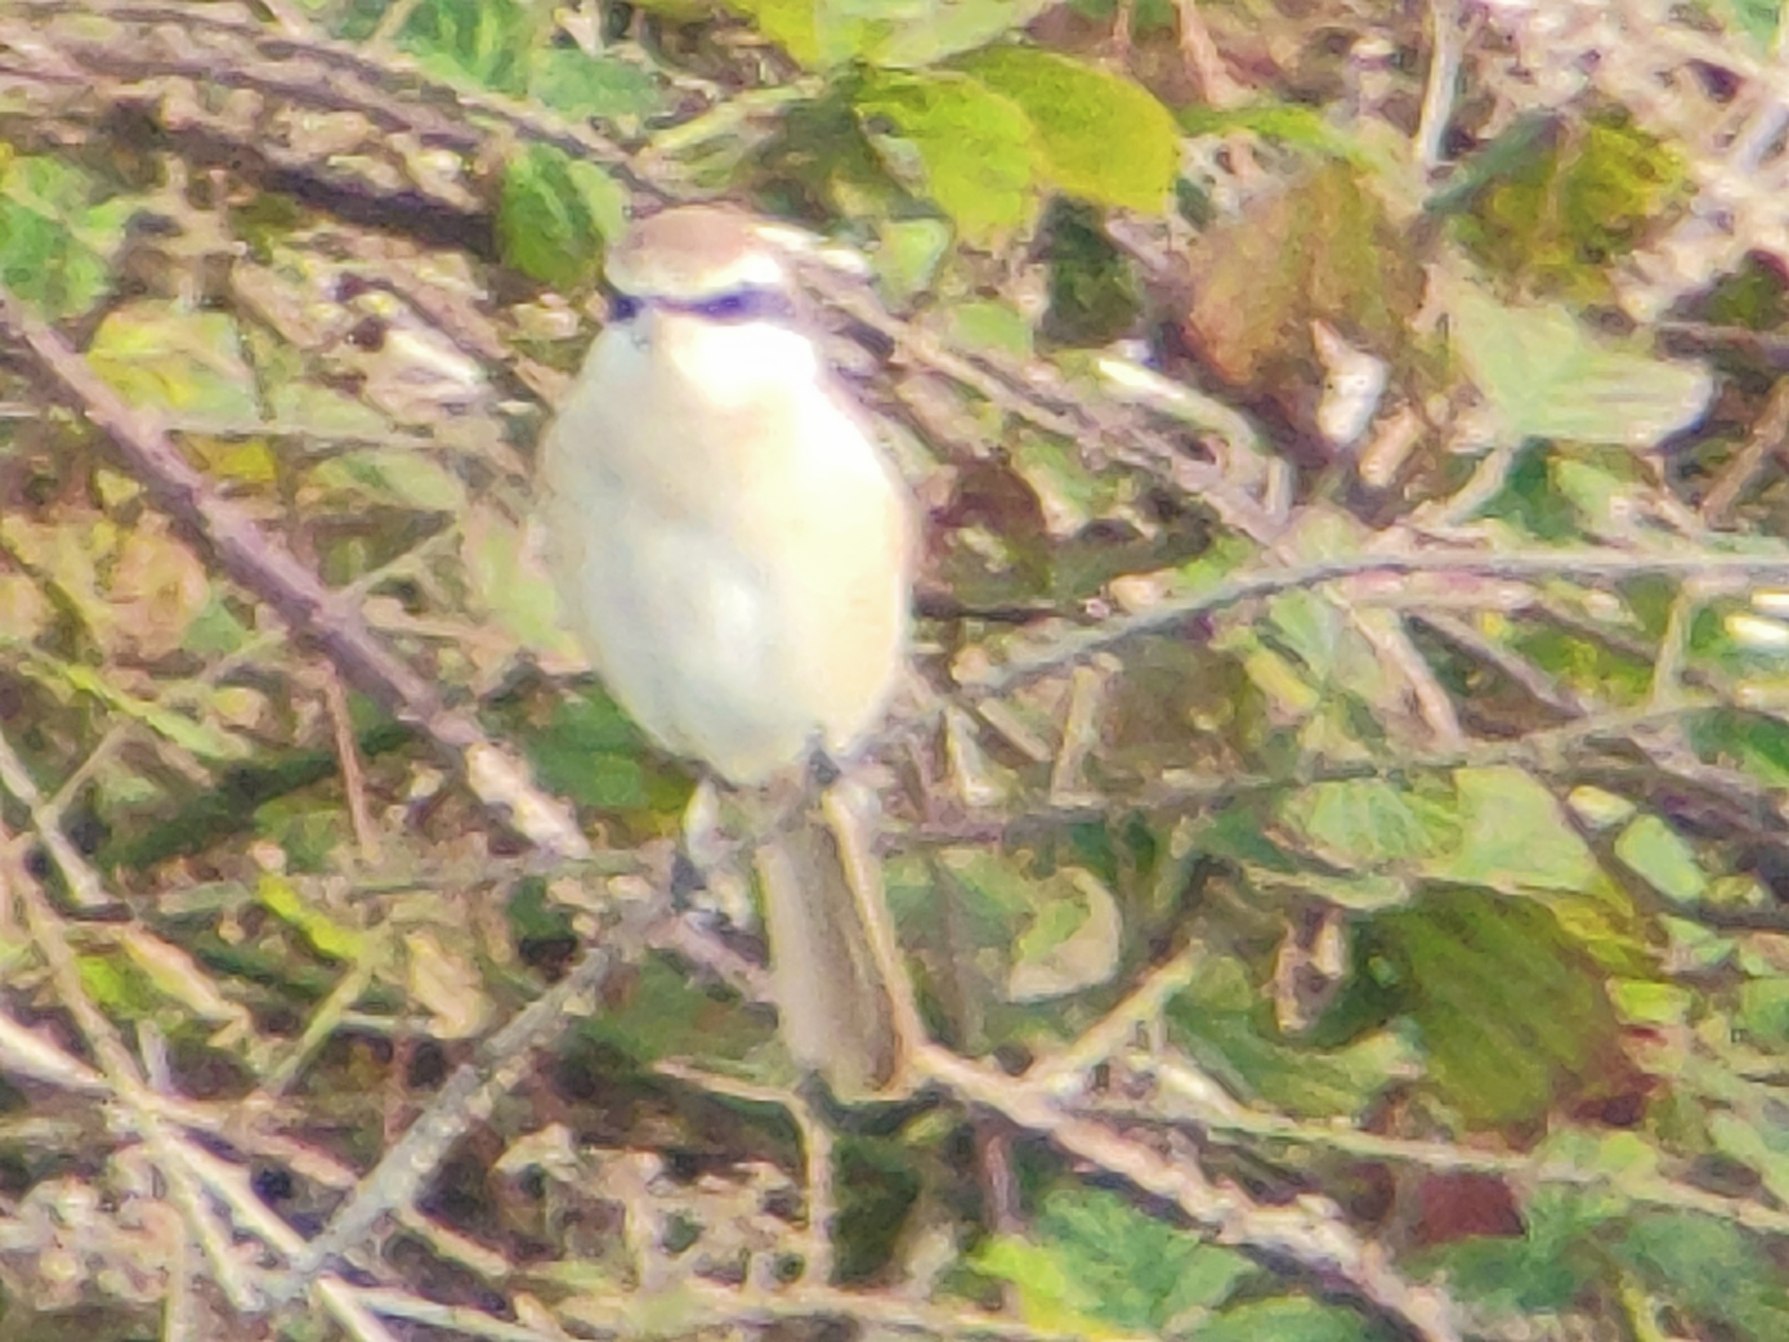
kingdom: Animalia
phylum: Chordata
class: Aves
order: Passeriformes
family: Laniidae
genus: Lanius
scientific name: Lanius cristatus
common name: Brun tornskade
